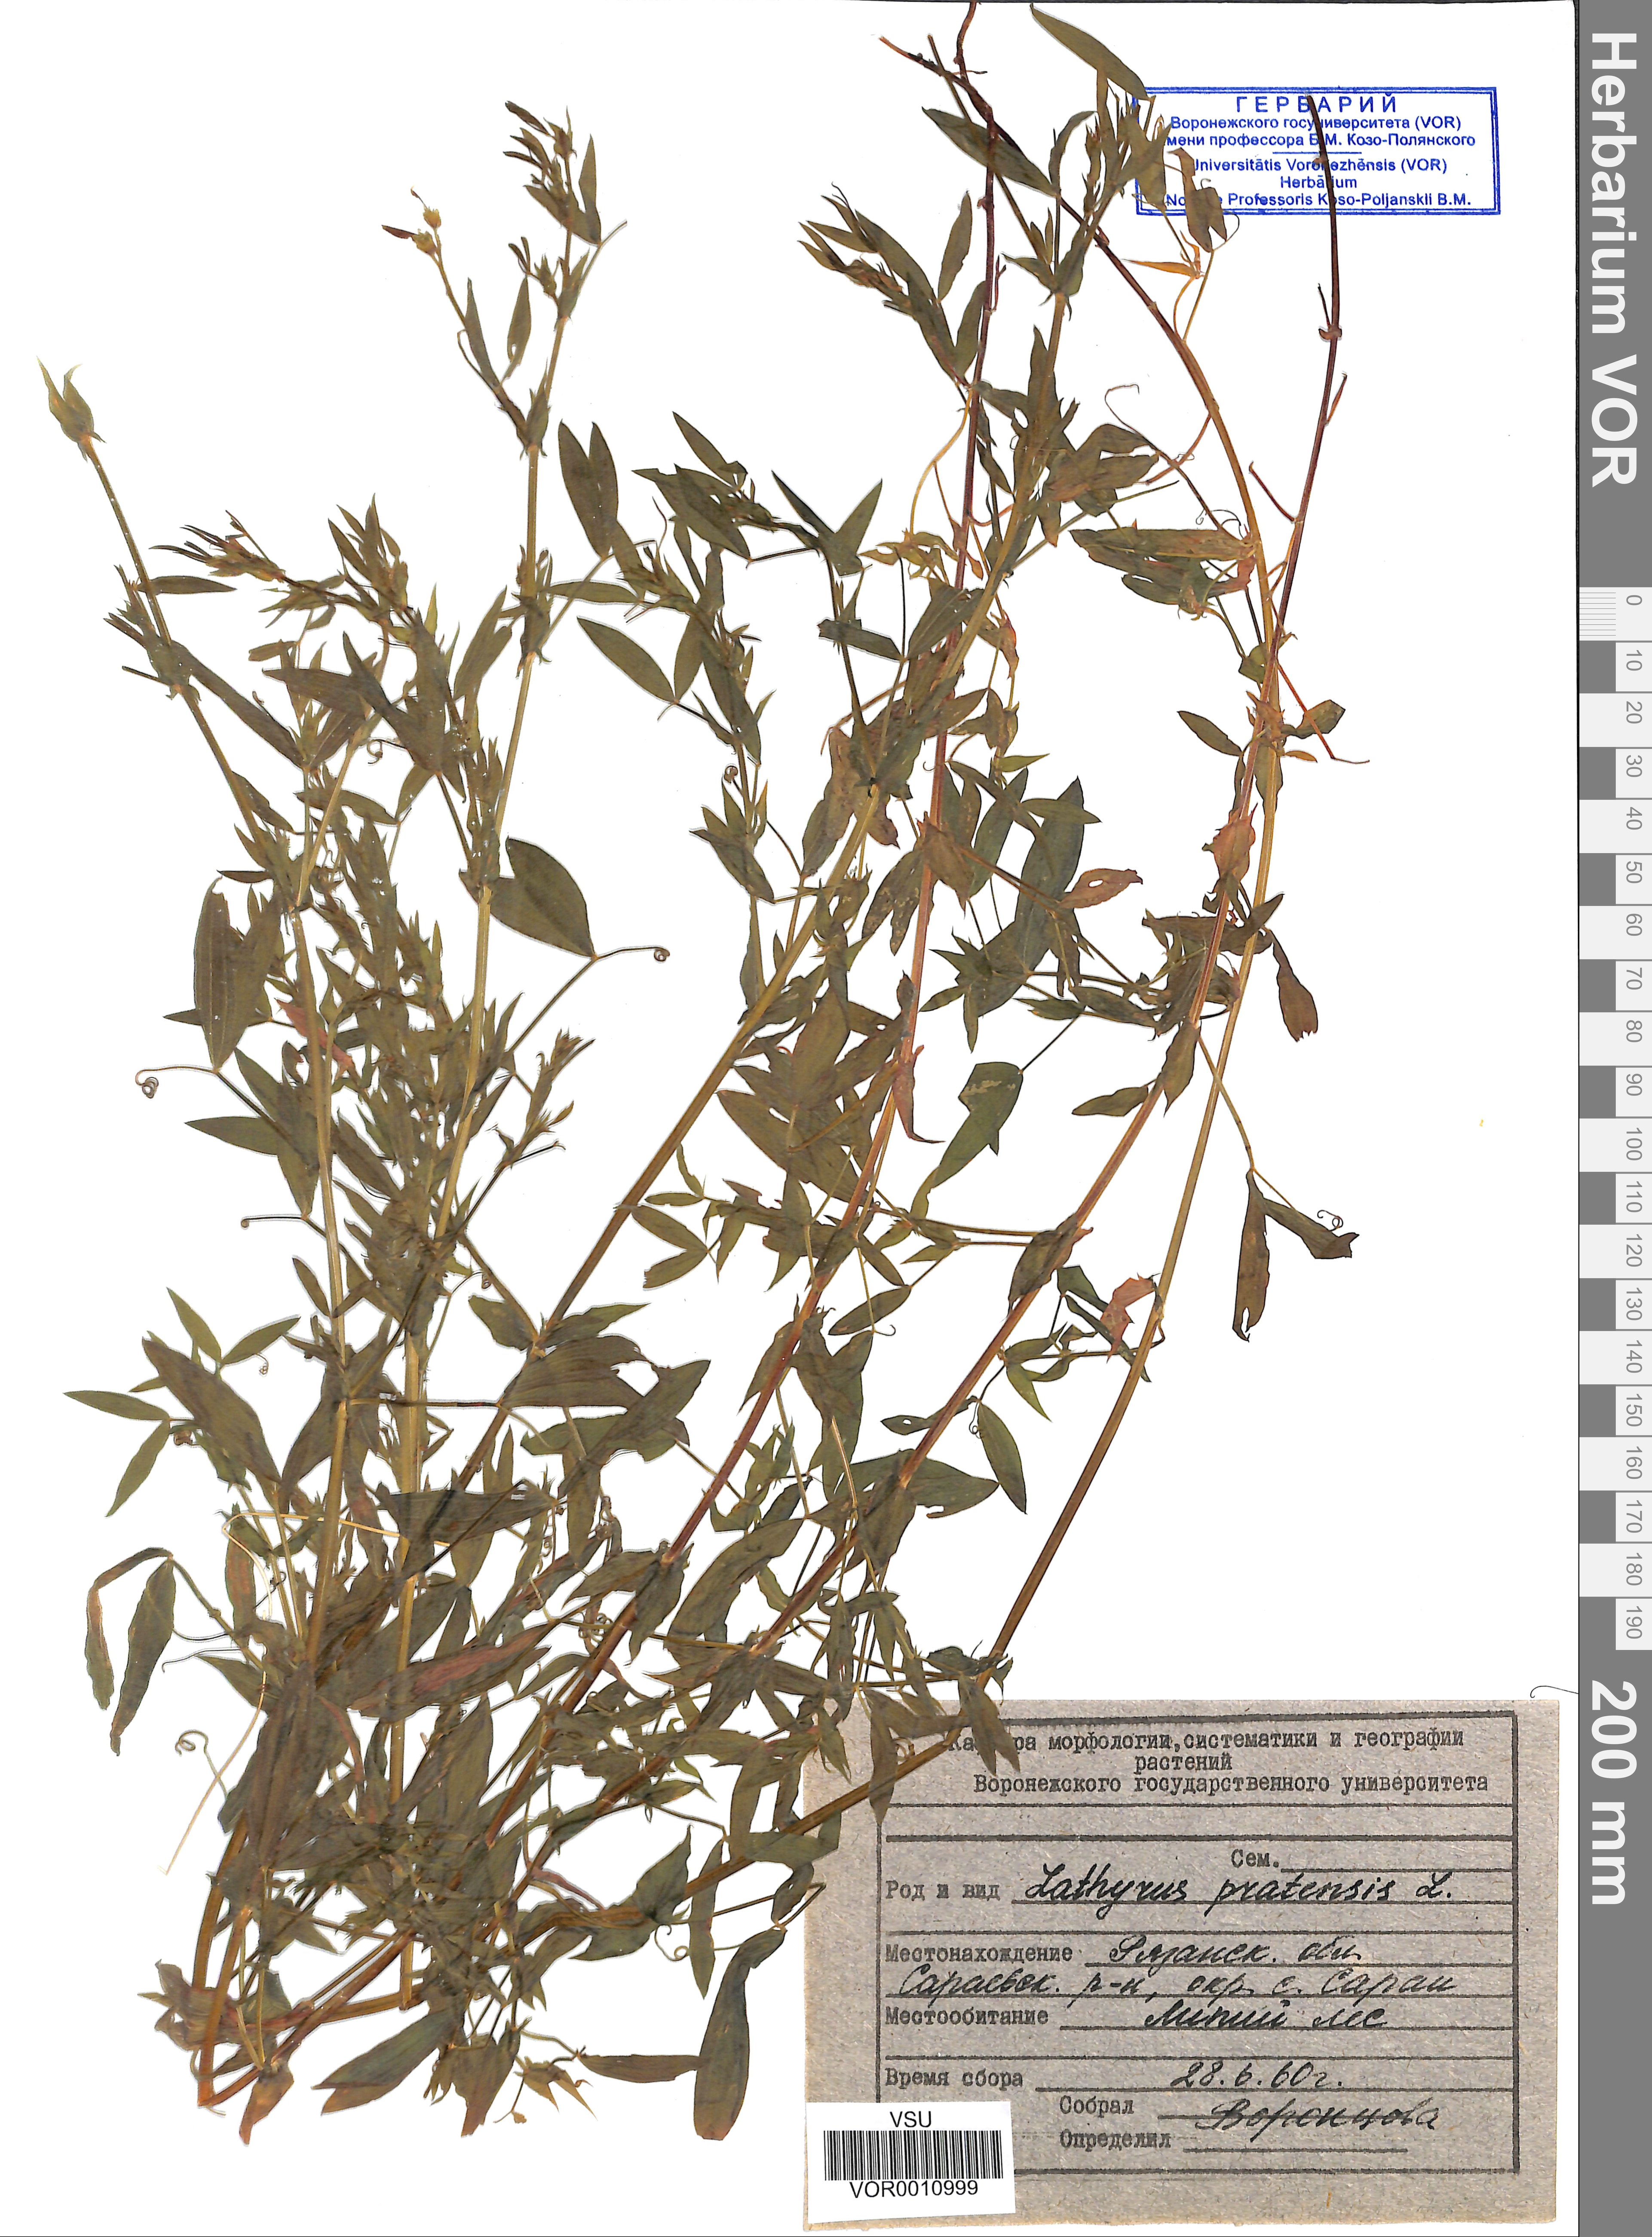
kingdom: Plantae
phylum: Tracheophyta
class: Magnoliopsida
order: Fabales
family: Fabaceae
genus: Lathyrus
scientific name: Lathyrus pratensis
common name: Meadow vetchling
